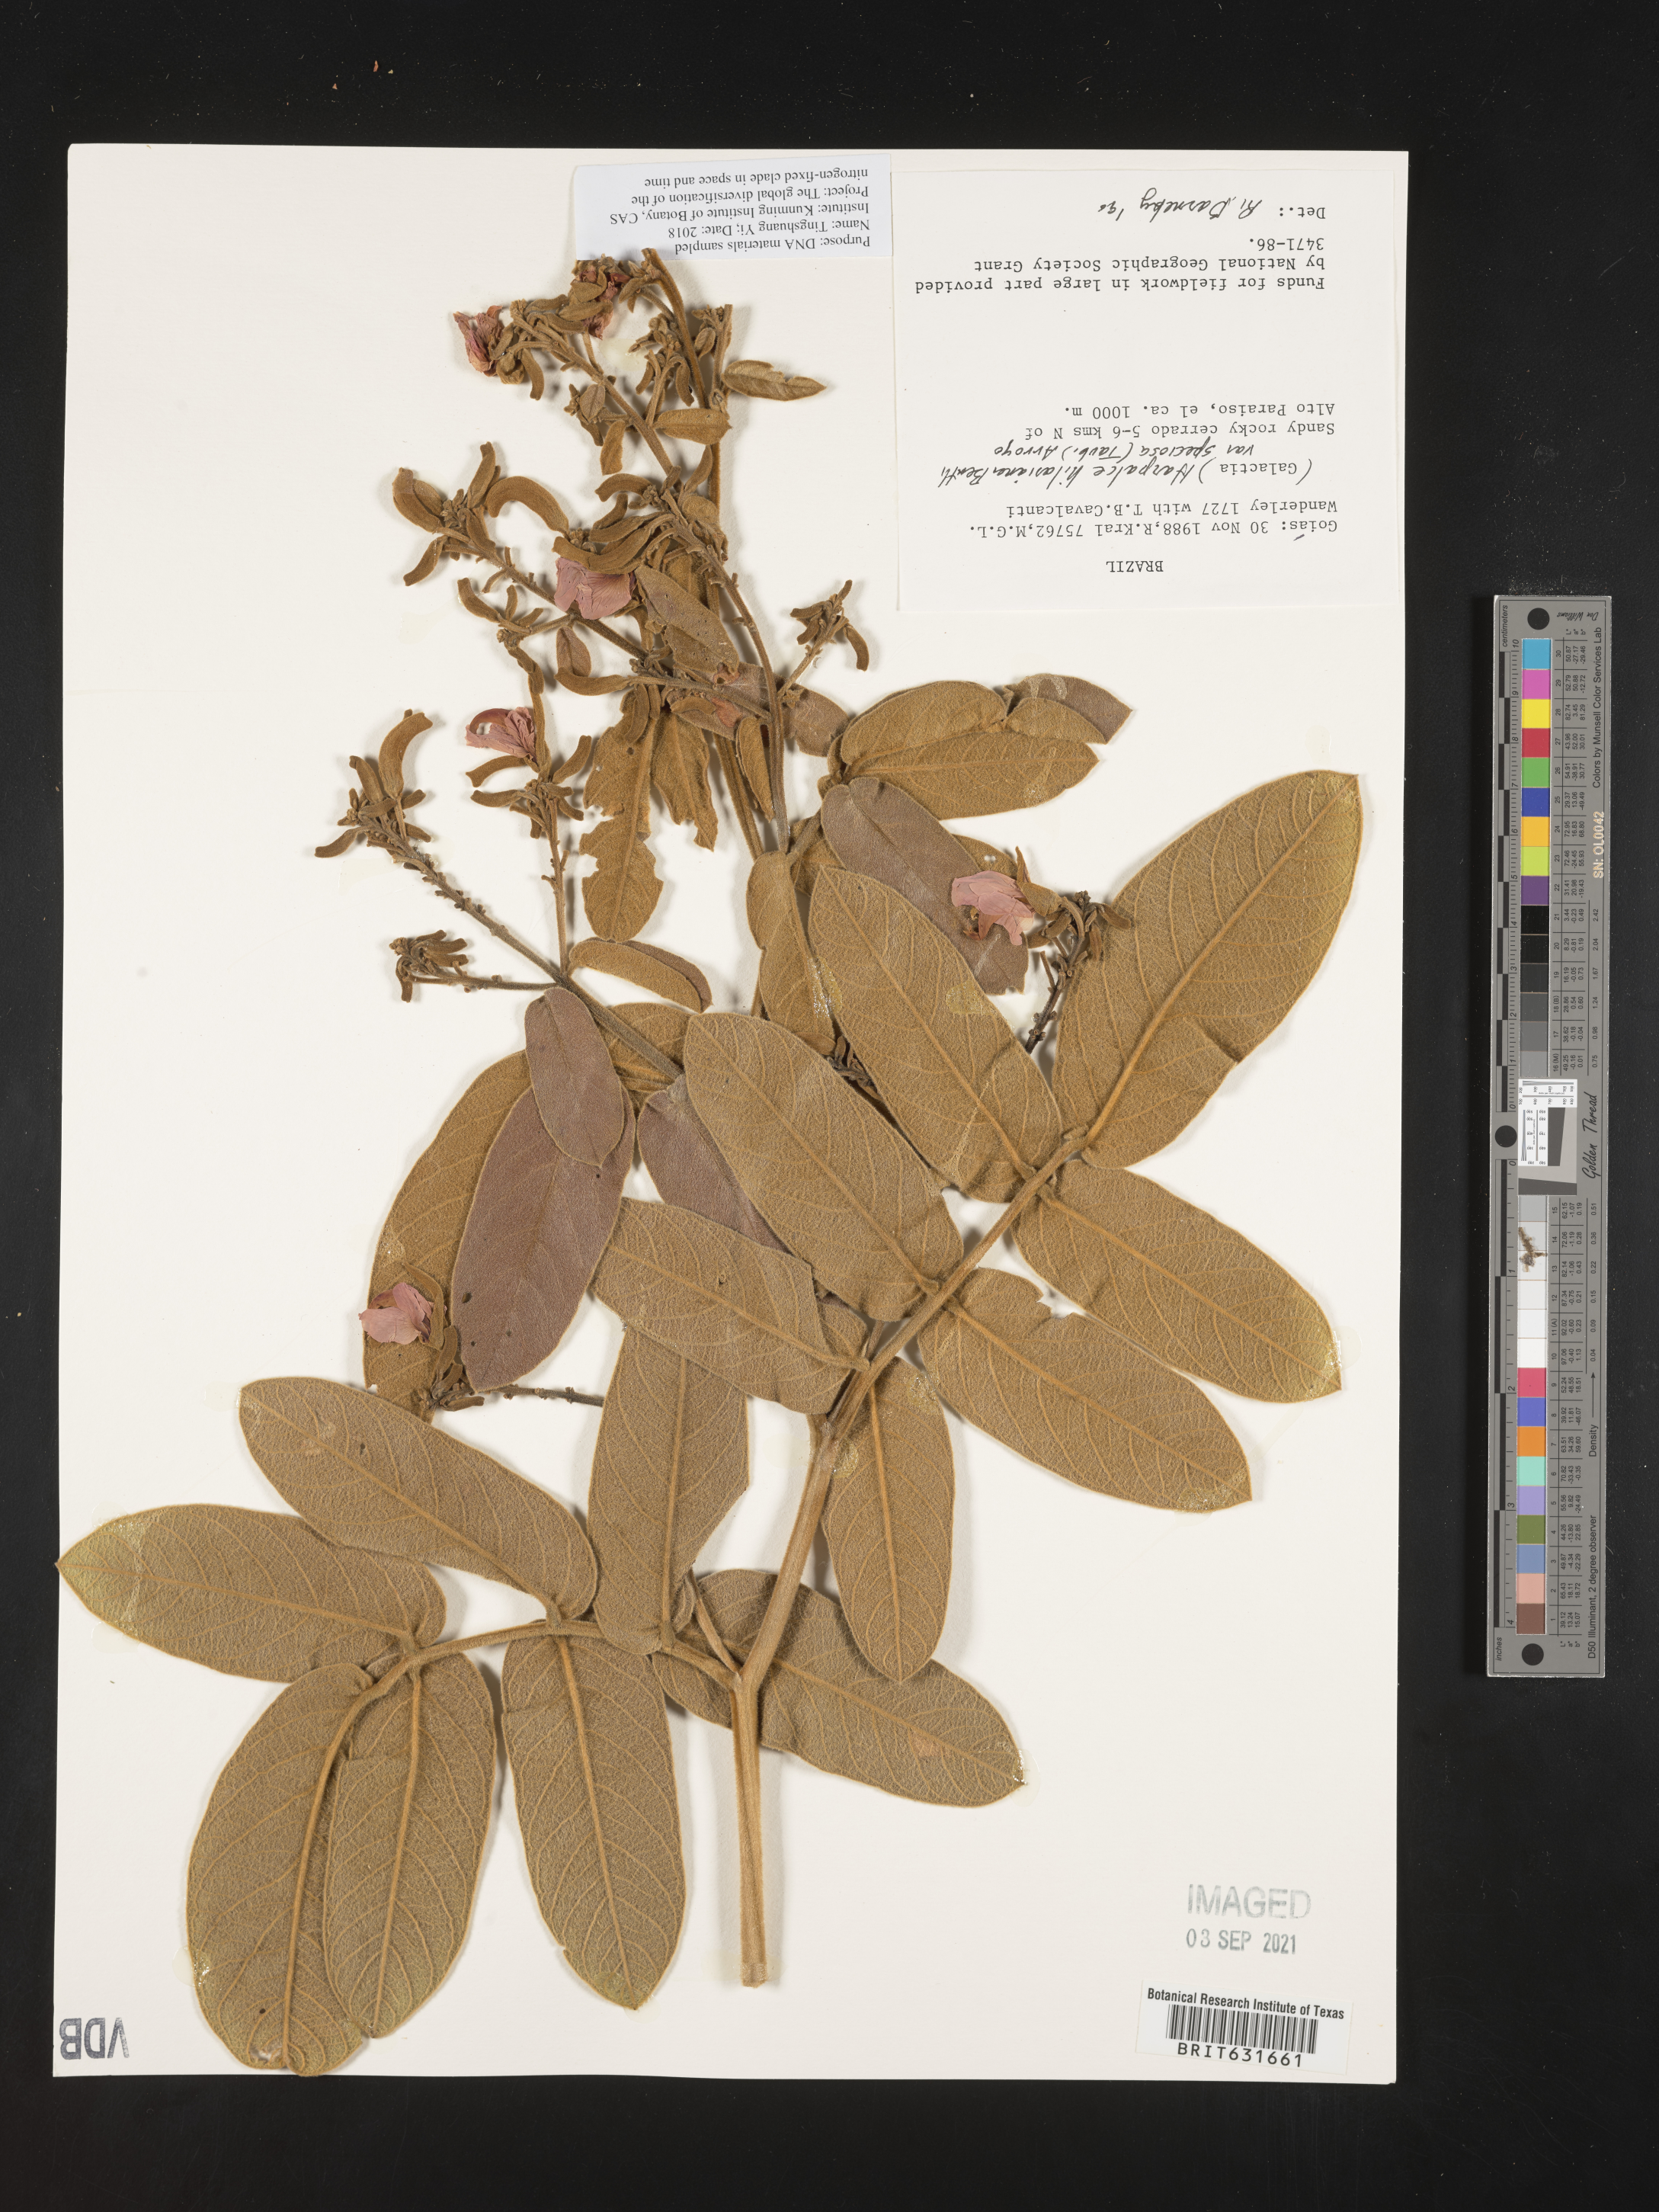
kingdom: Plantae
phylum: Tracheophyta
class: Magnoliopsida
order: Fabales
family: Fabaceae
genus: Harpalyce
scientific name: Harpalyce
